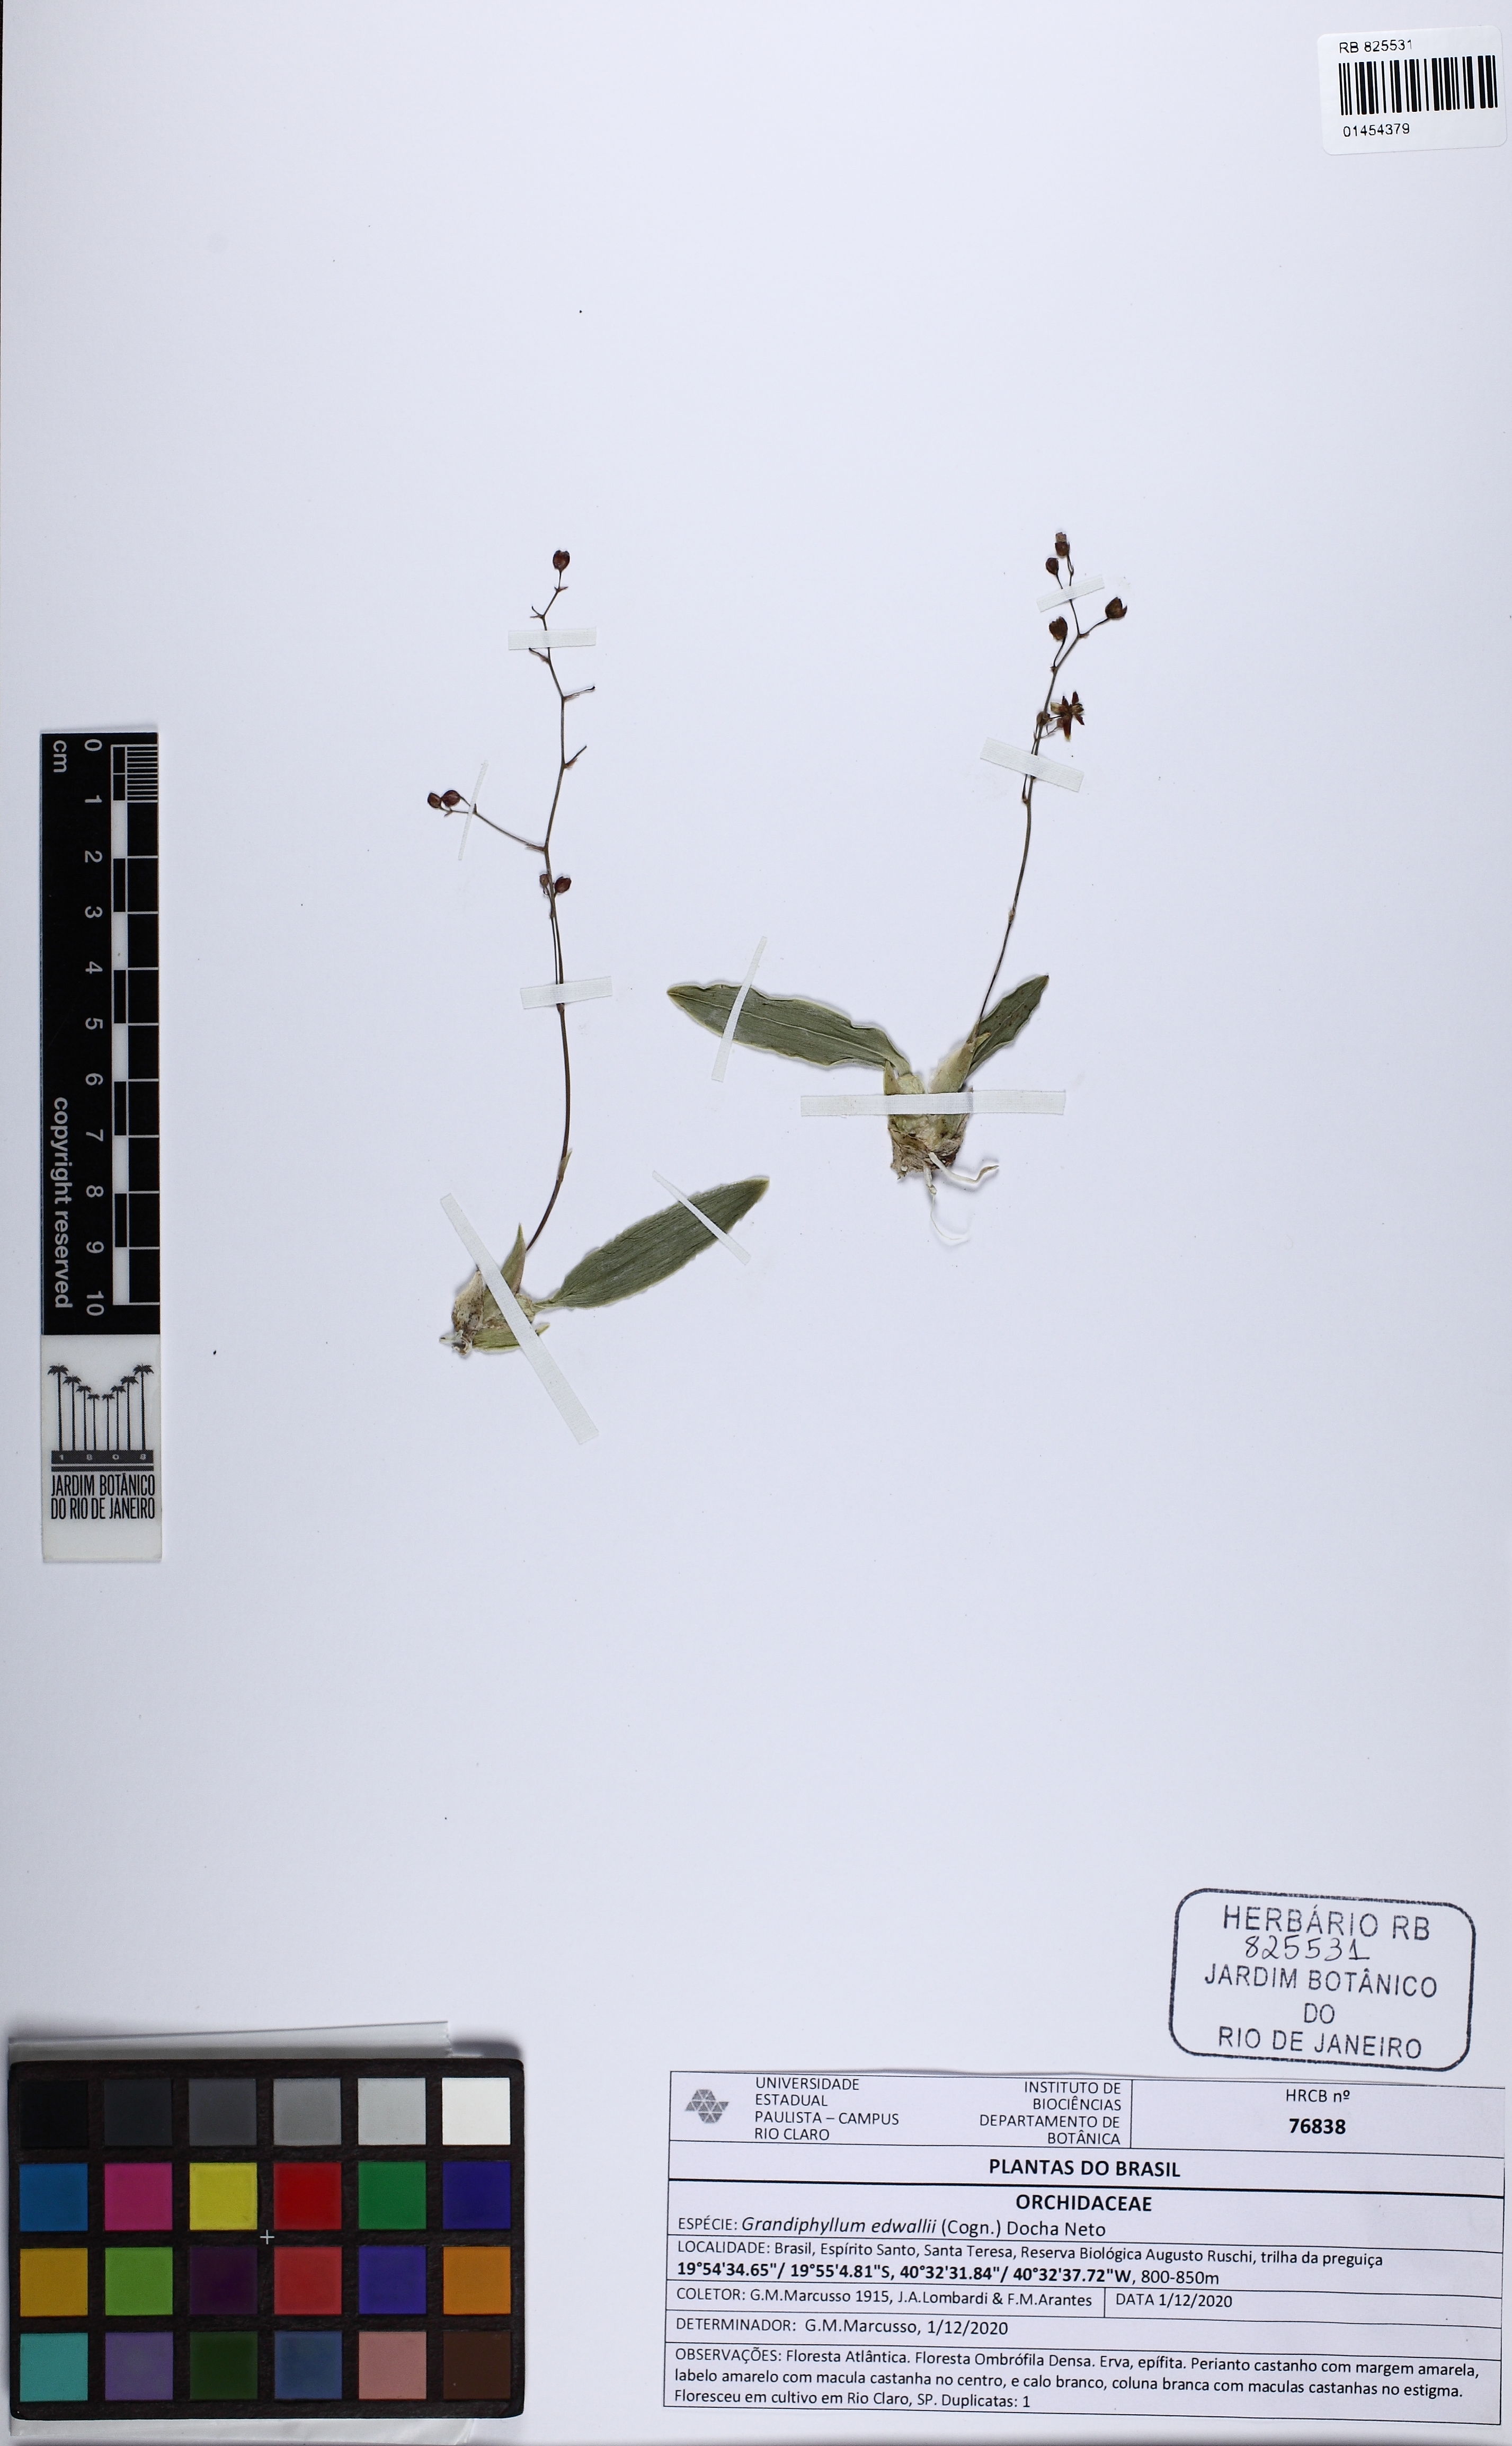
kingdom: Plantae
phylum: Tracheophyta
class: Liliopsida
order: Asparagales
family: Orchidaceae
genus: Grandiphyllum
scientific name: Grandiphyllum edwallii
